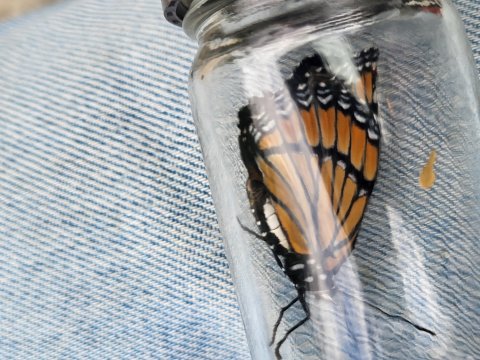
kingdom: Animalia
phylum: Arthropoda
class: Insecta
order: Lepidoptera
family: Nymphalidae
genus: Limenitis
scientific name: Limenitis archippus
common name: Viceroy
